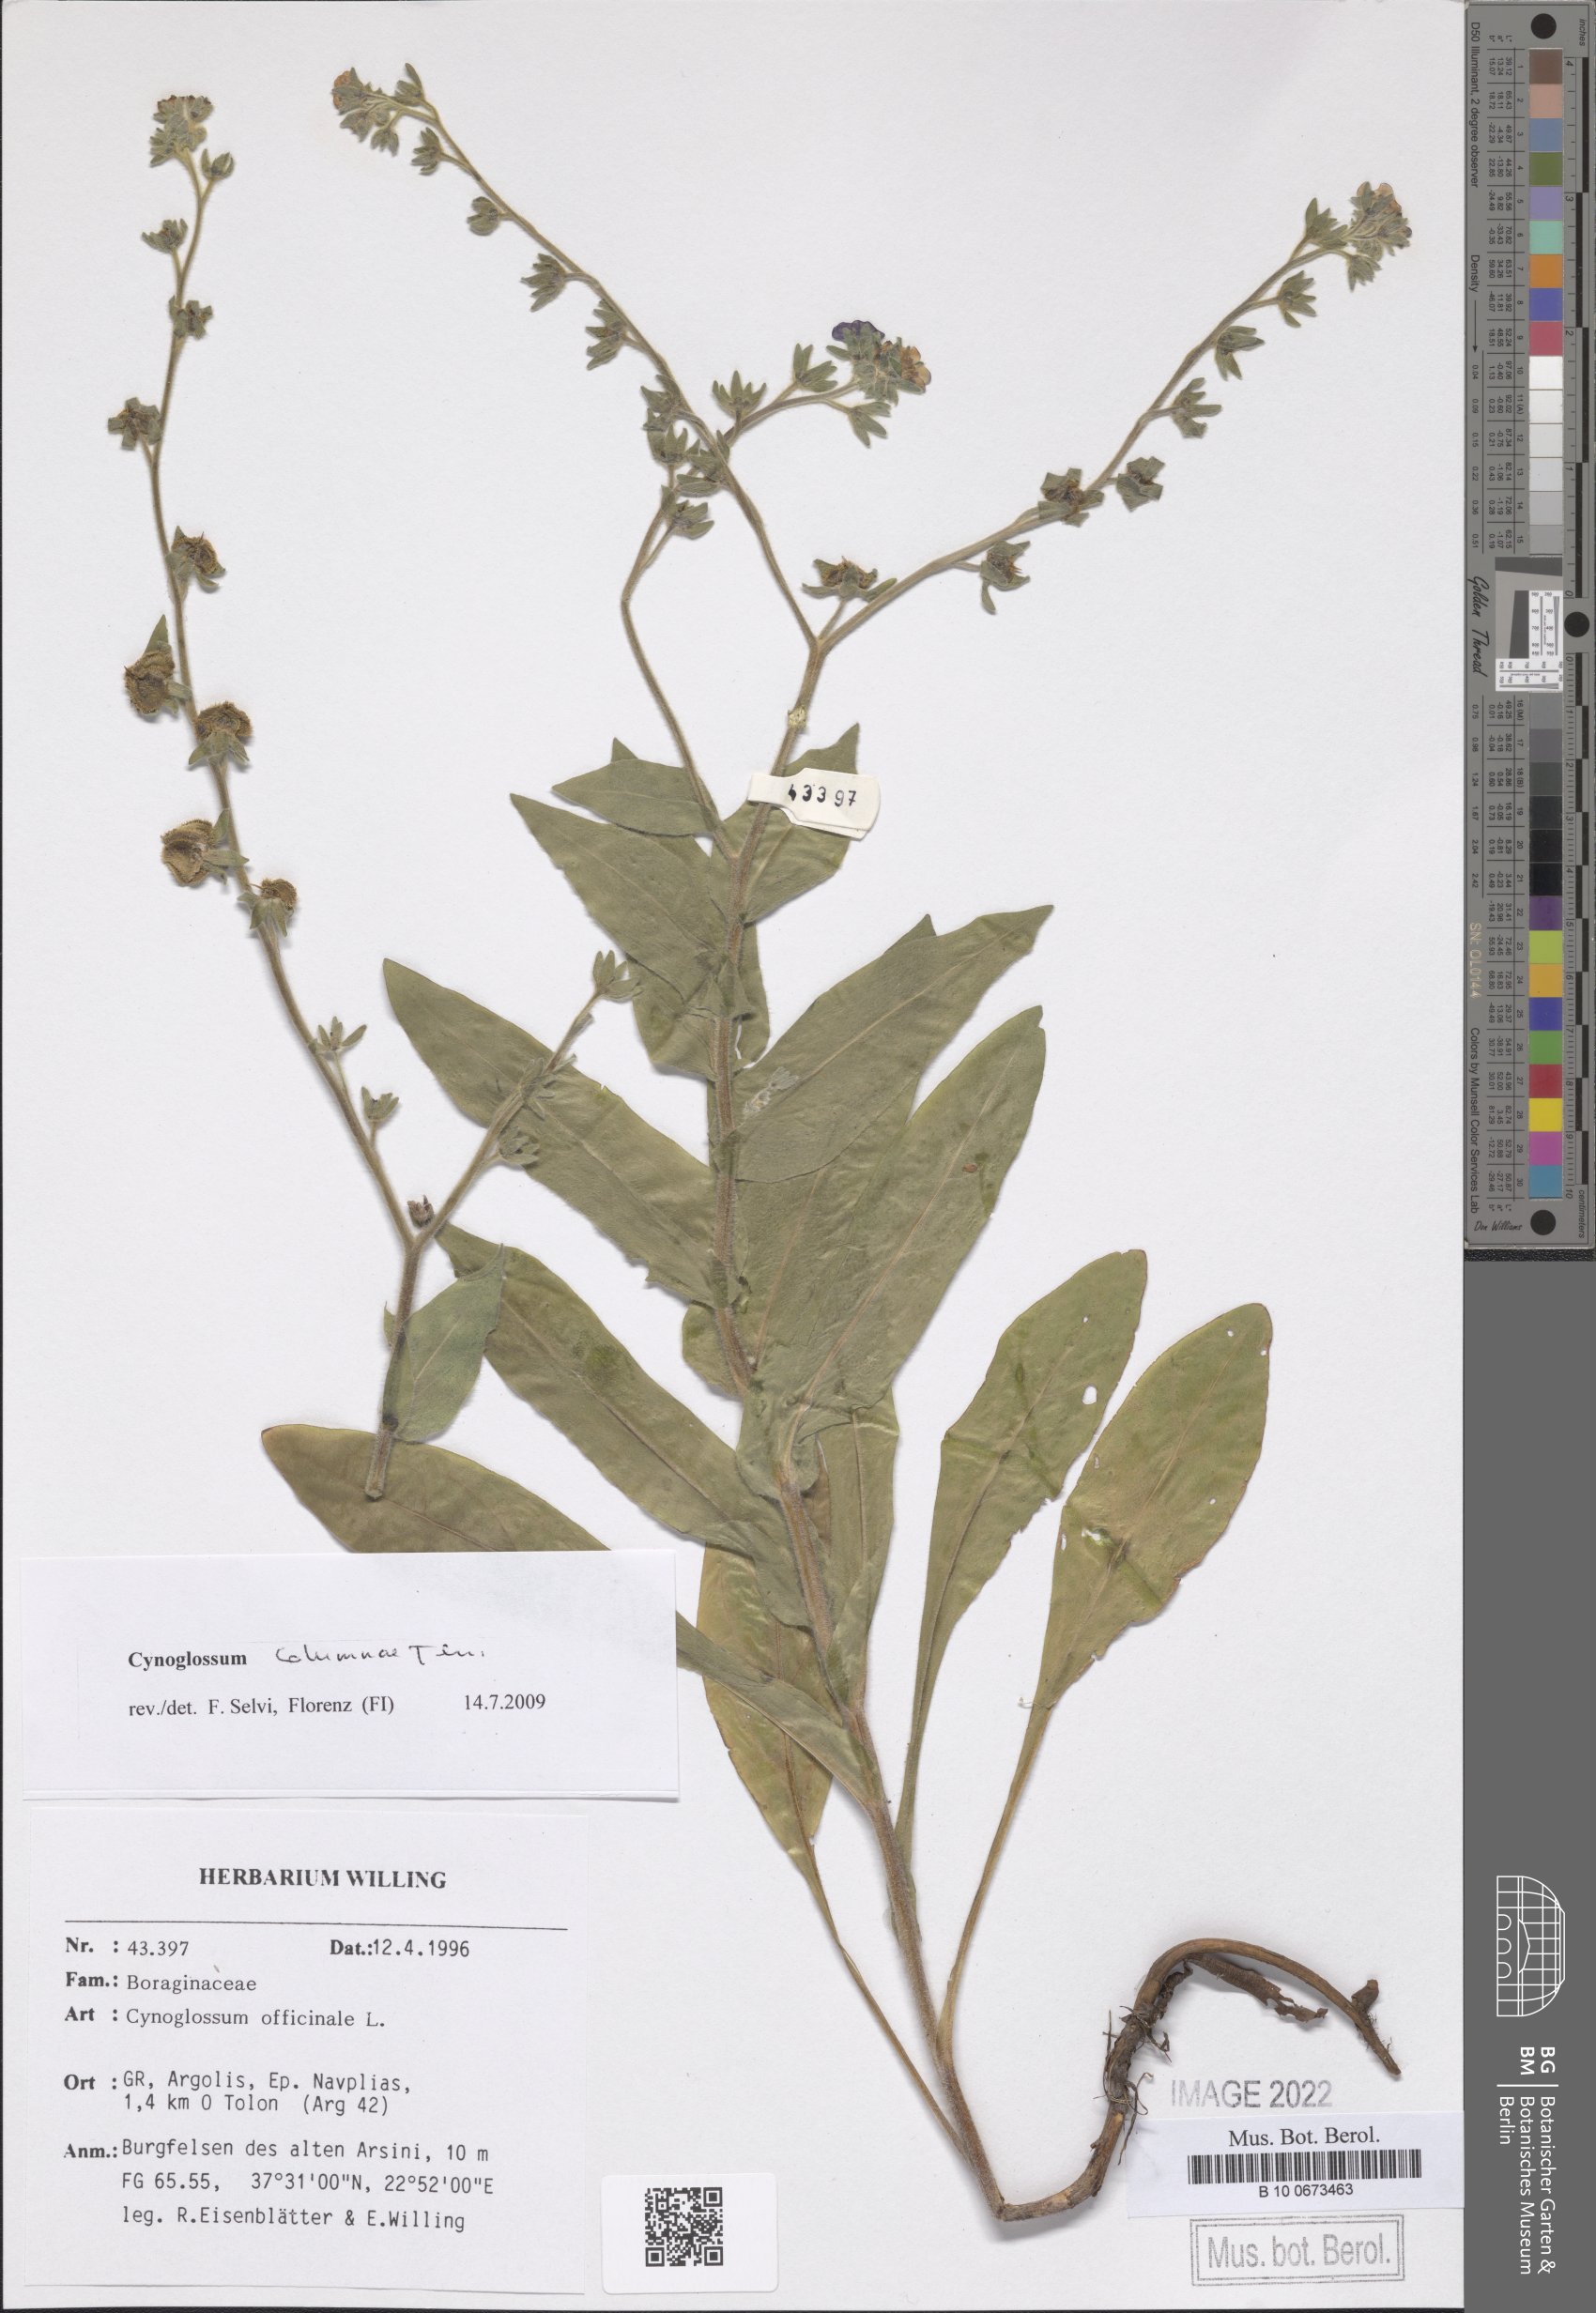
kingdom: Plantae
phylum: Tracheophyta
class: Magnoliopsida
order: Boraginales
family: Boraginaceae
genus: Rindera
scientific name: Rindera columnae
